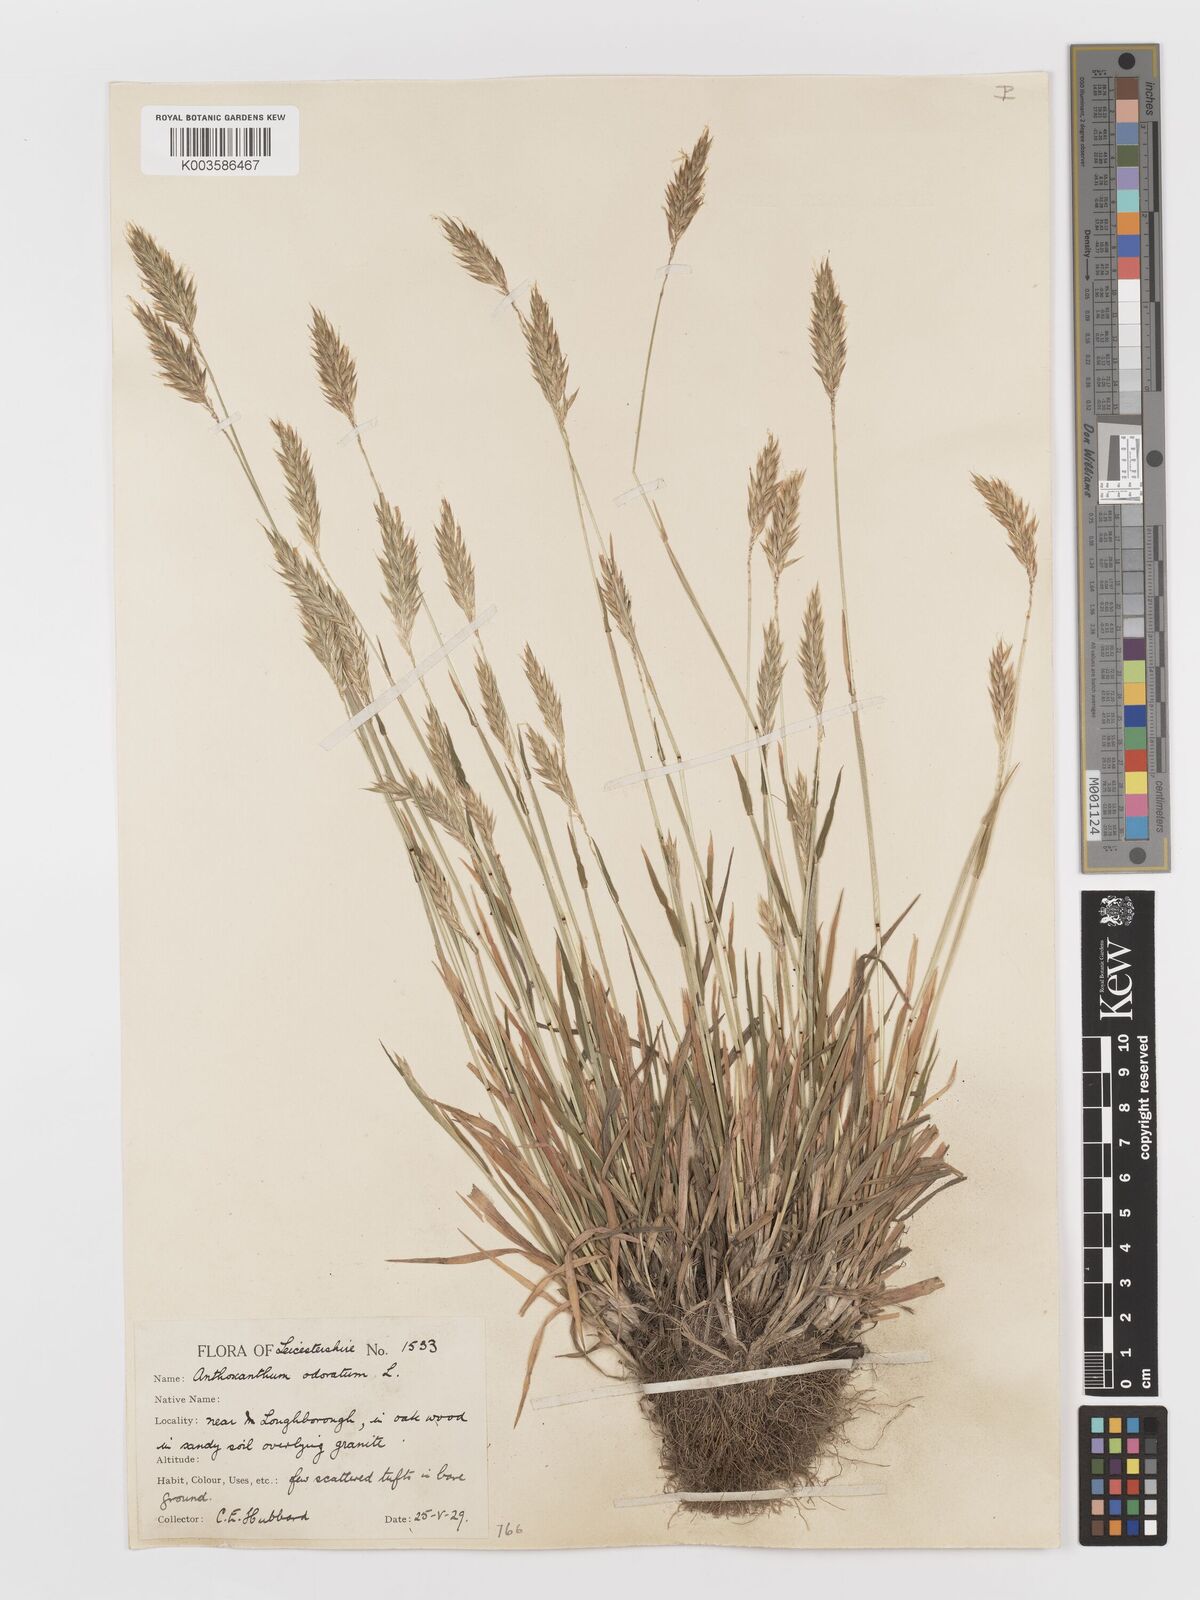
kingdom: Plantae
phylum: Tracheophyta
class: Liliopsida
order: Poales
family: Poaceae
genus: Anthoxanthum
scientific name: Anthoxanthum odoratum
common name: Sweet vernalgrass
